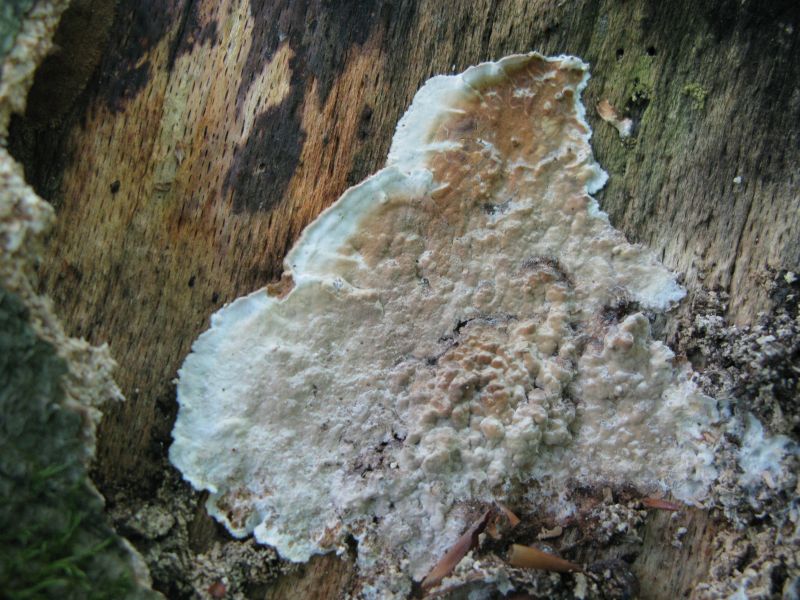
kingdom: Fungi
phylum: Basidiomycota
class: Agaricomycetes
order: Russulales
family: Hericiaceae
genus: Laxitextum
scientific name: Laxitextum bicolor
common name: tvefarvet filtskind
